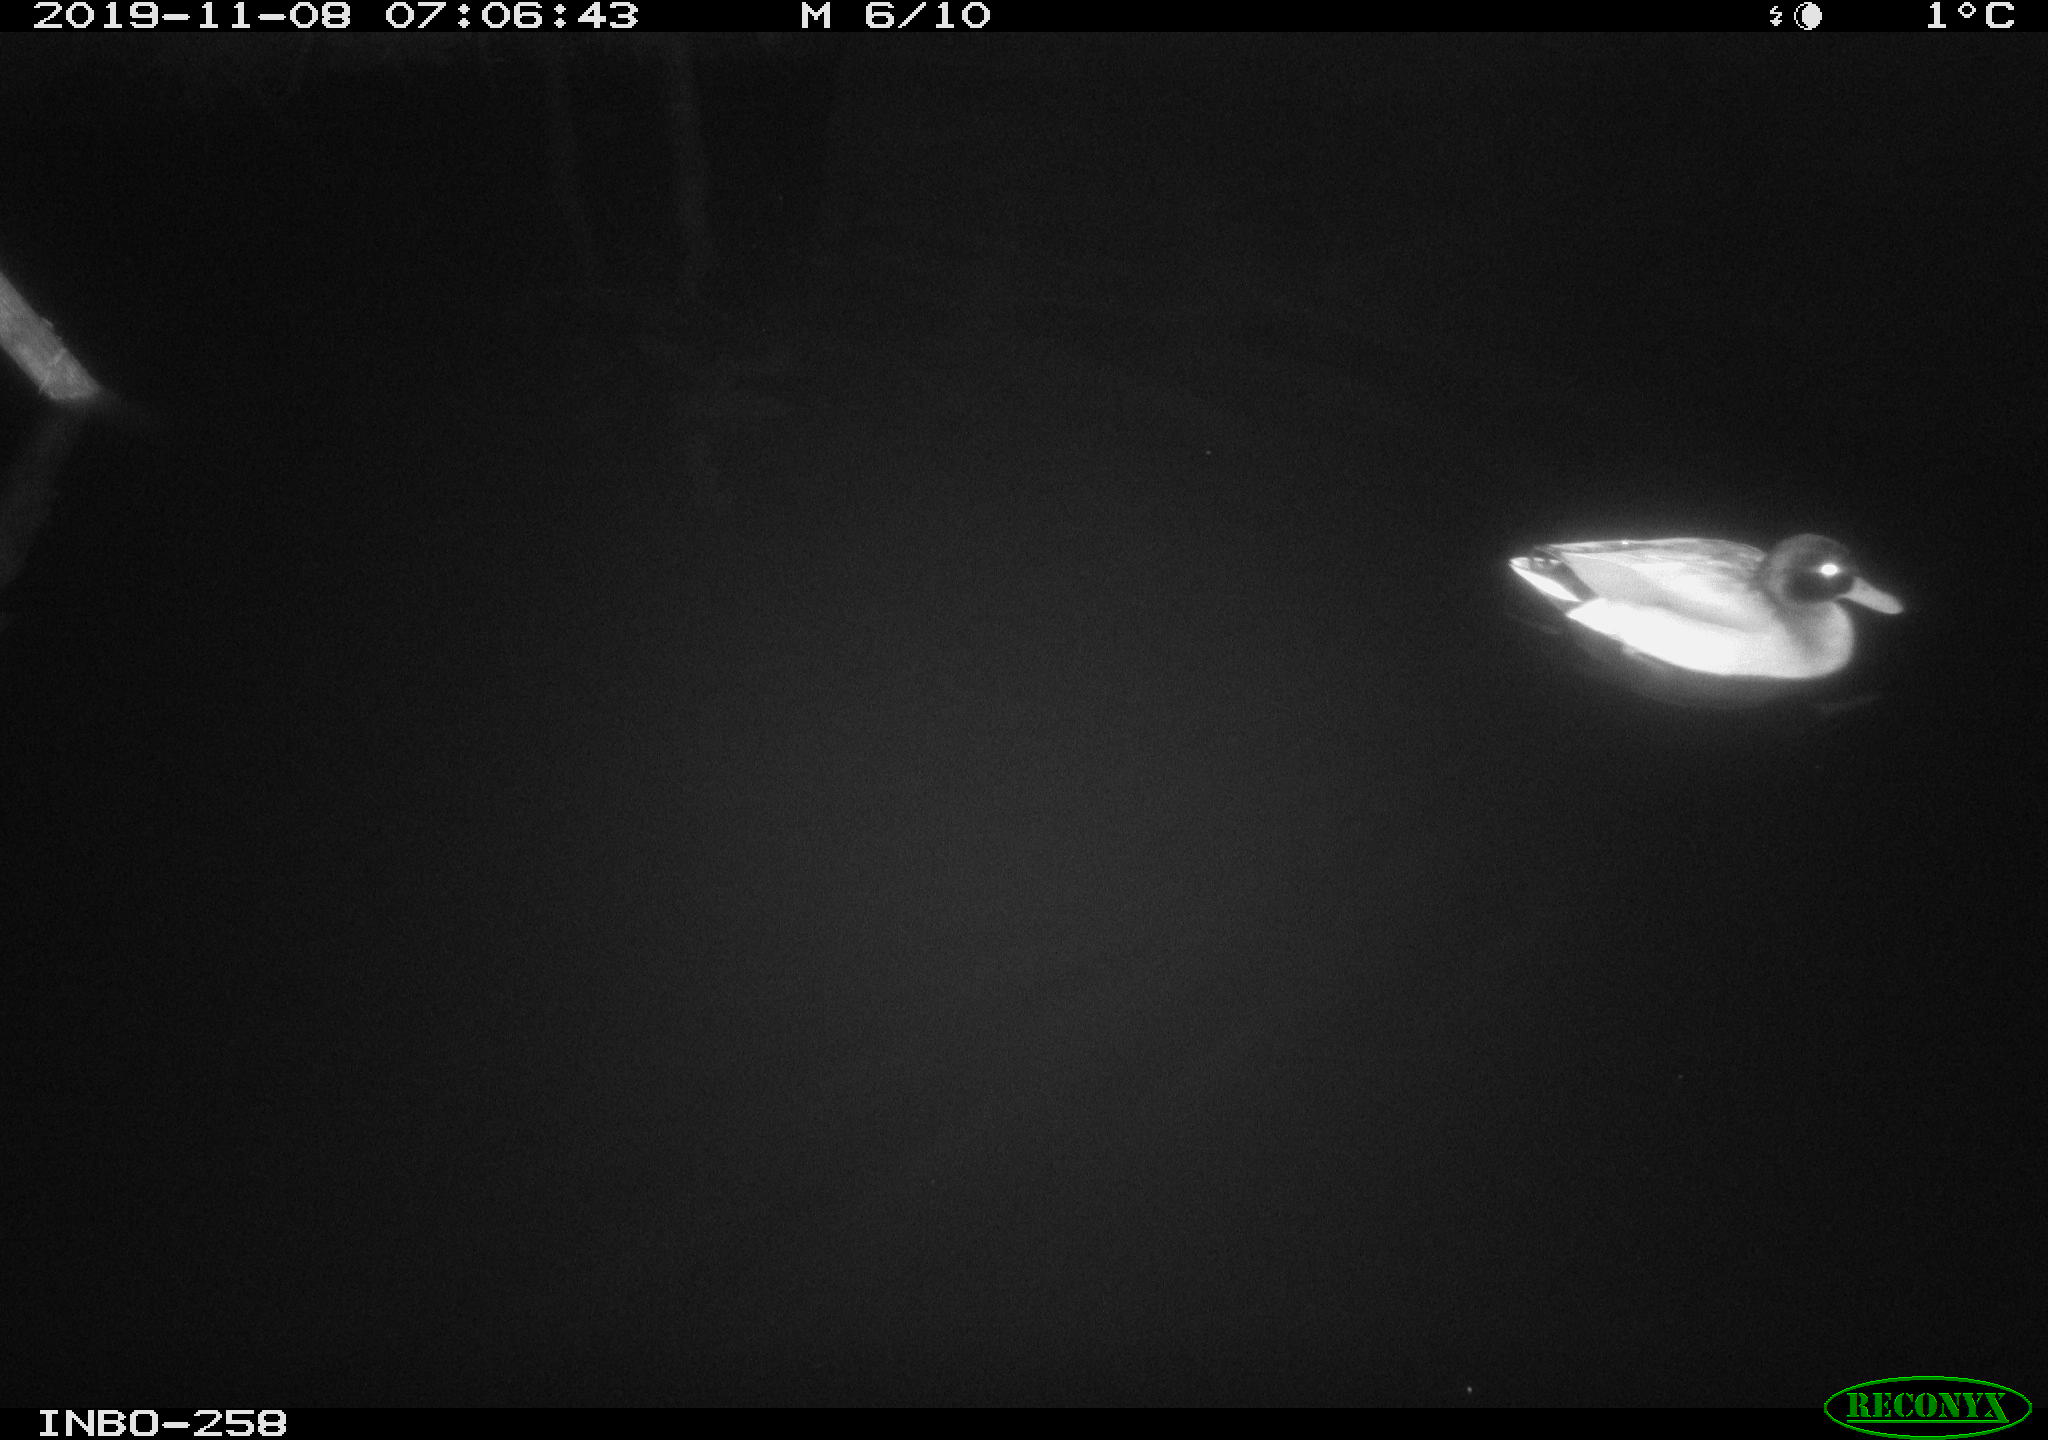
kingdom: Animalia
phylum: Chordata
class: Aves
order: Anseriformes
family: Anatidae
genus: Anas
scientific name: Anas platyrhynchos
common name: Mallard
